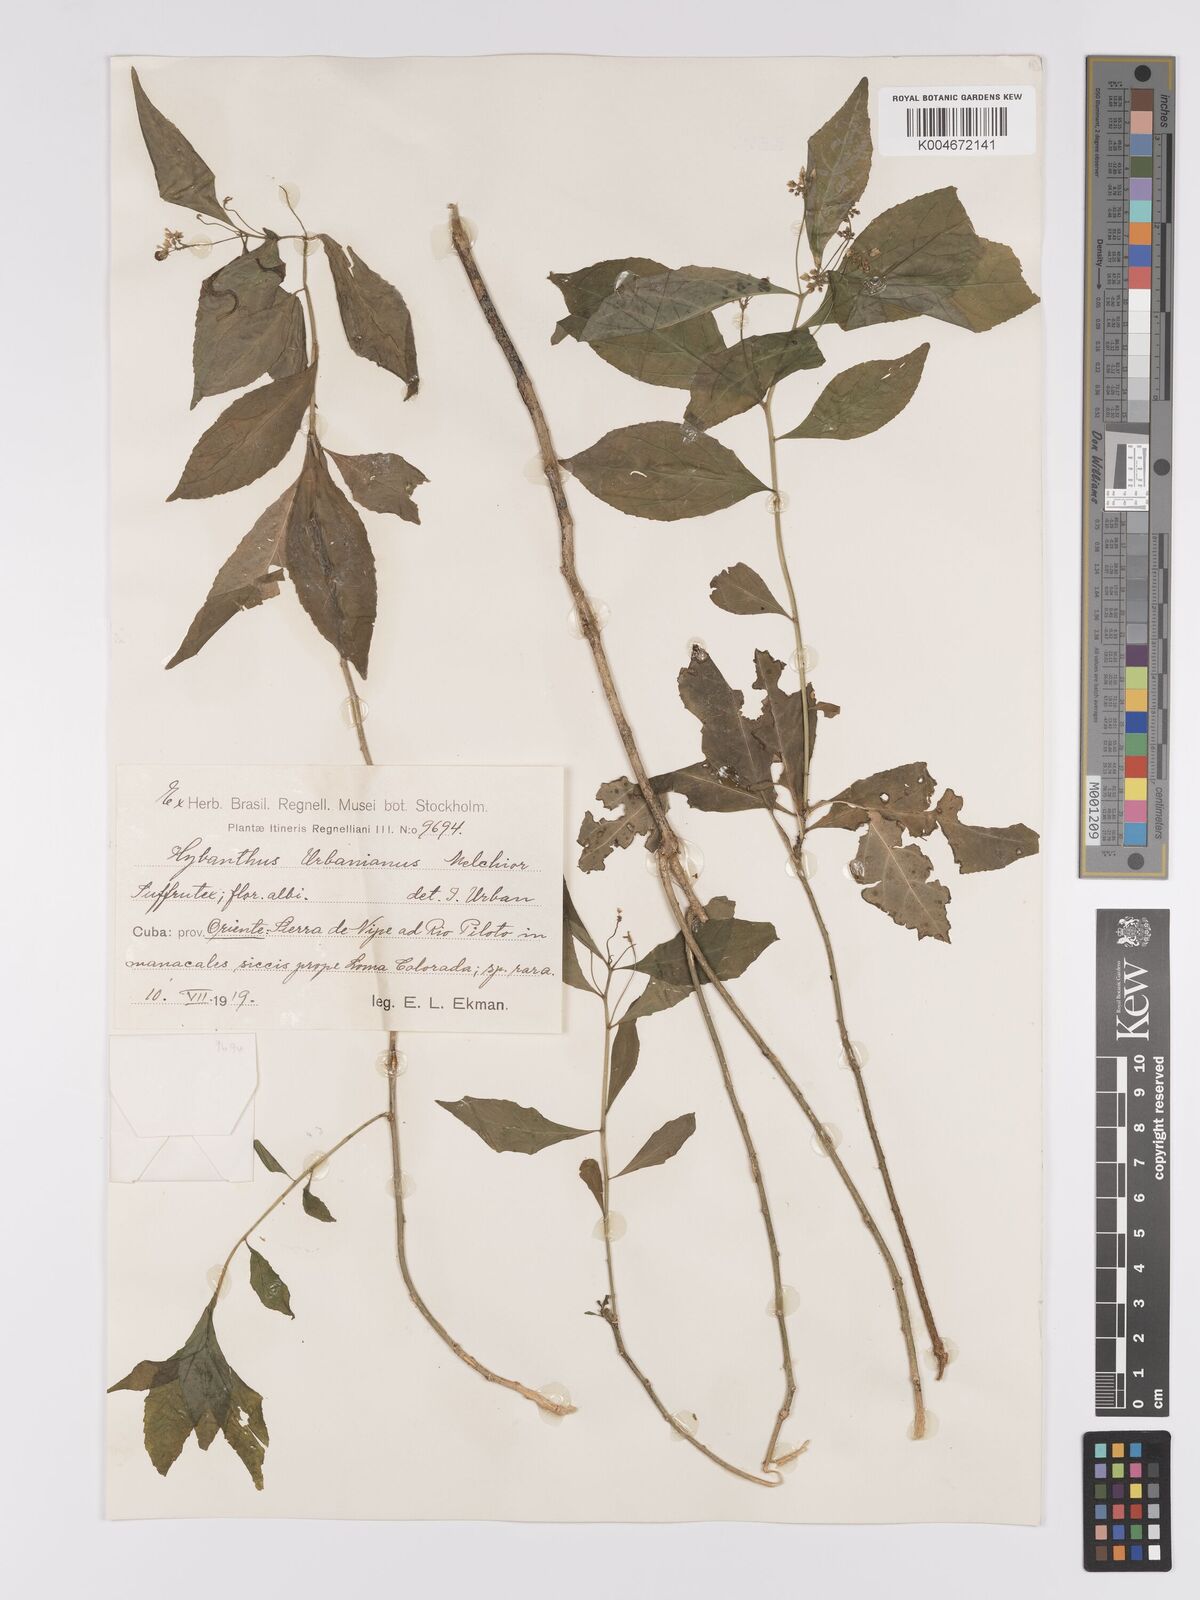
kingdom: Plantae
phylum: Tracheophyta
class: Magnoliopsida
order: Malpighiales
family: Violaceae
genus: Hybanthus
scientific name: Hybanthus urbanianus
